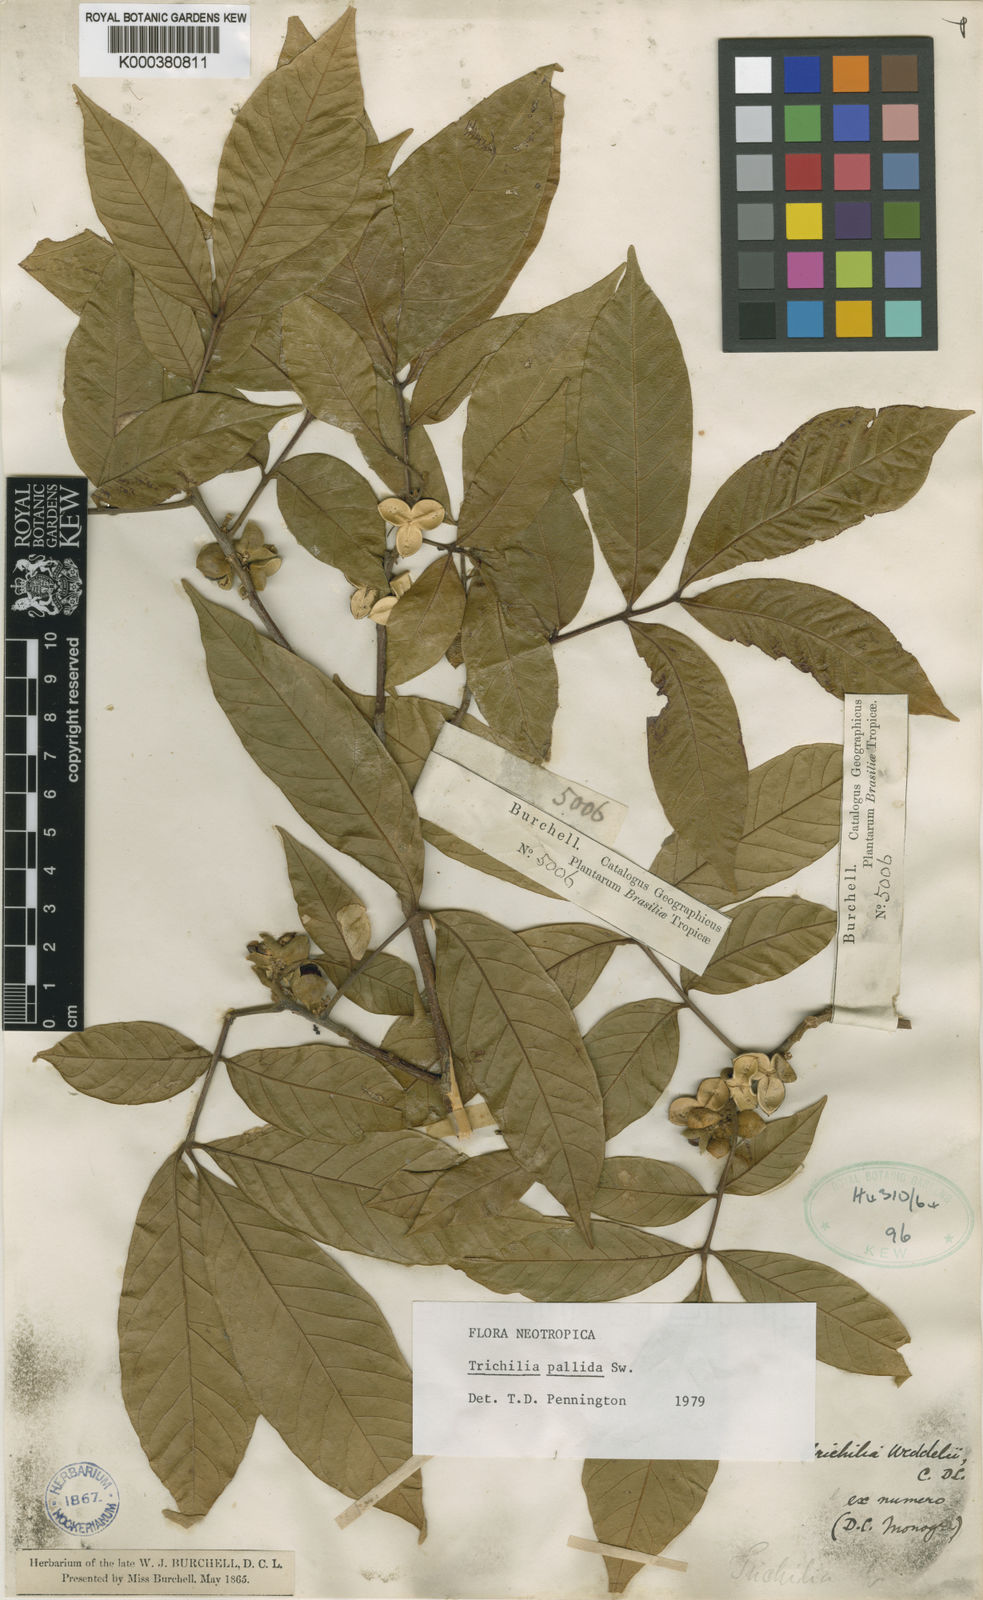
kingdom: Plantae
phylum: Tracheophyta
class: Magnoliopsida
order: Sapindales
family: Meliaceae
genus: Trichilia
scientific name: Trichilia pallida
